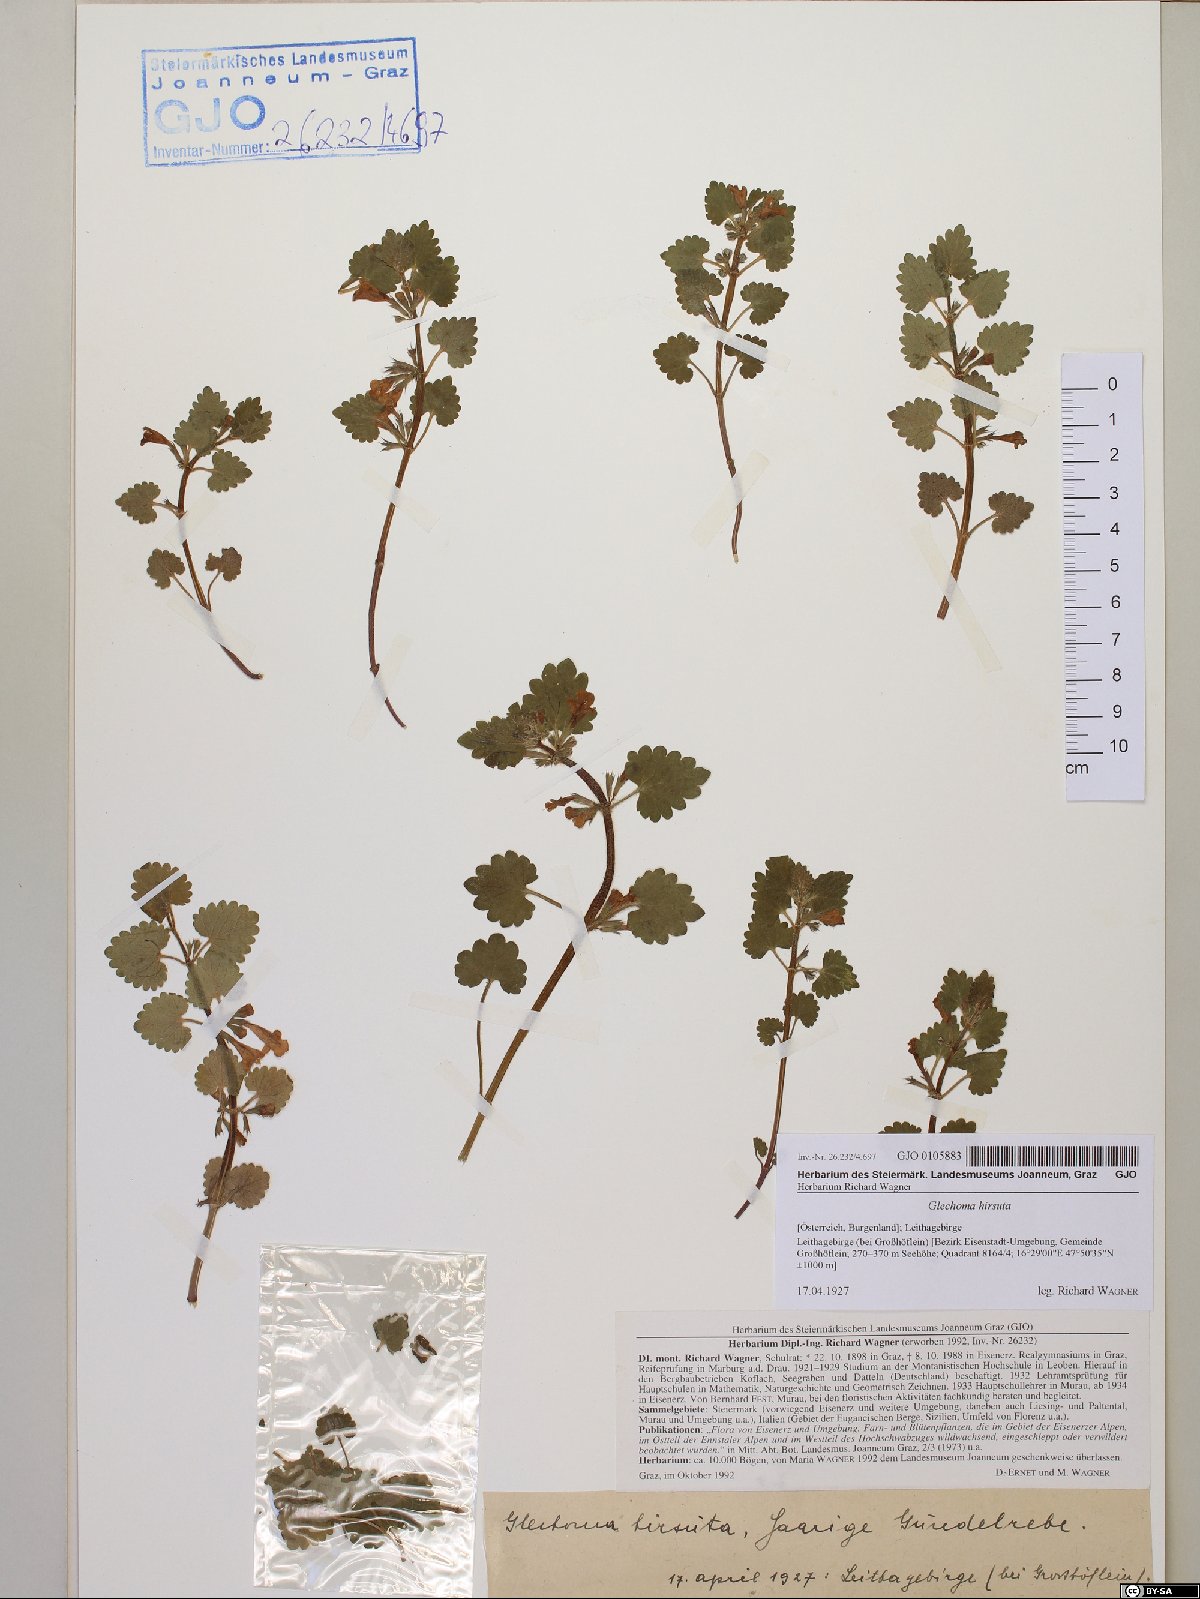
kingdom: Plantae
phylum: Tracheophyta
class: Magnoliopsida
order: Lamiales
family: Lamiaceae
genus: Glechoma
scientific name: Glechoma hirsuta
